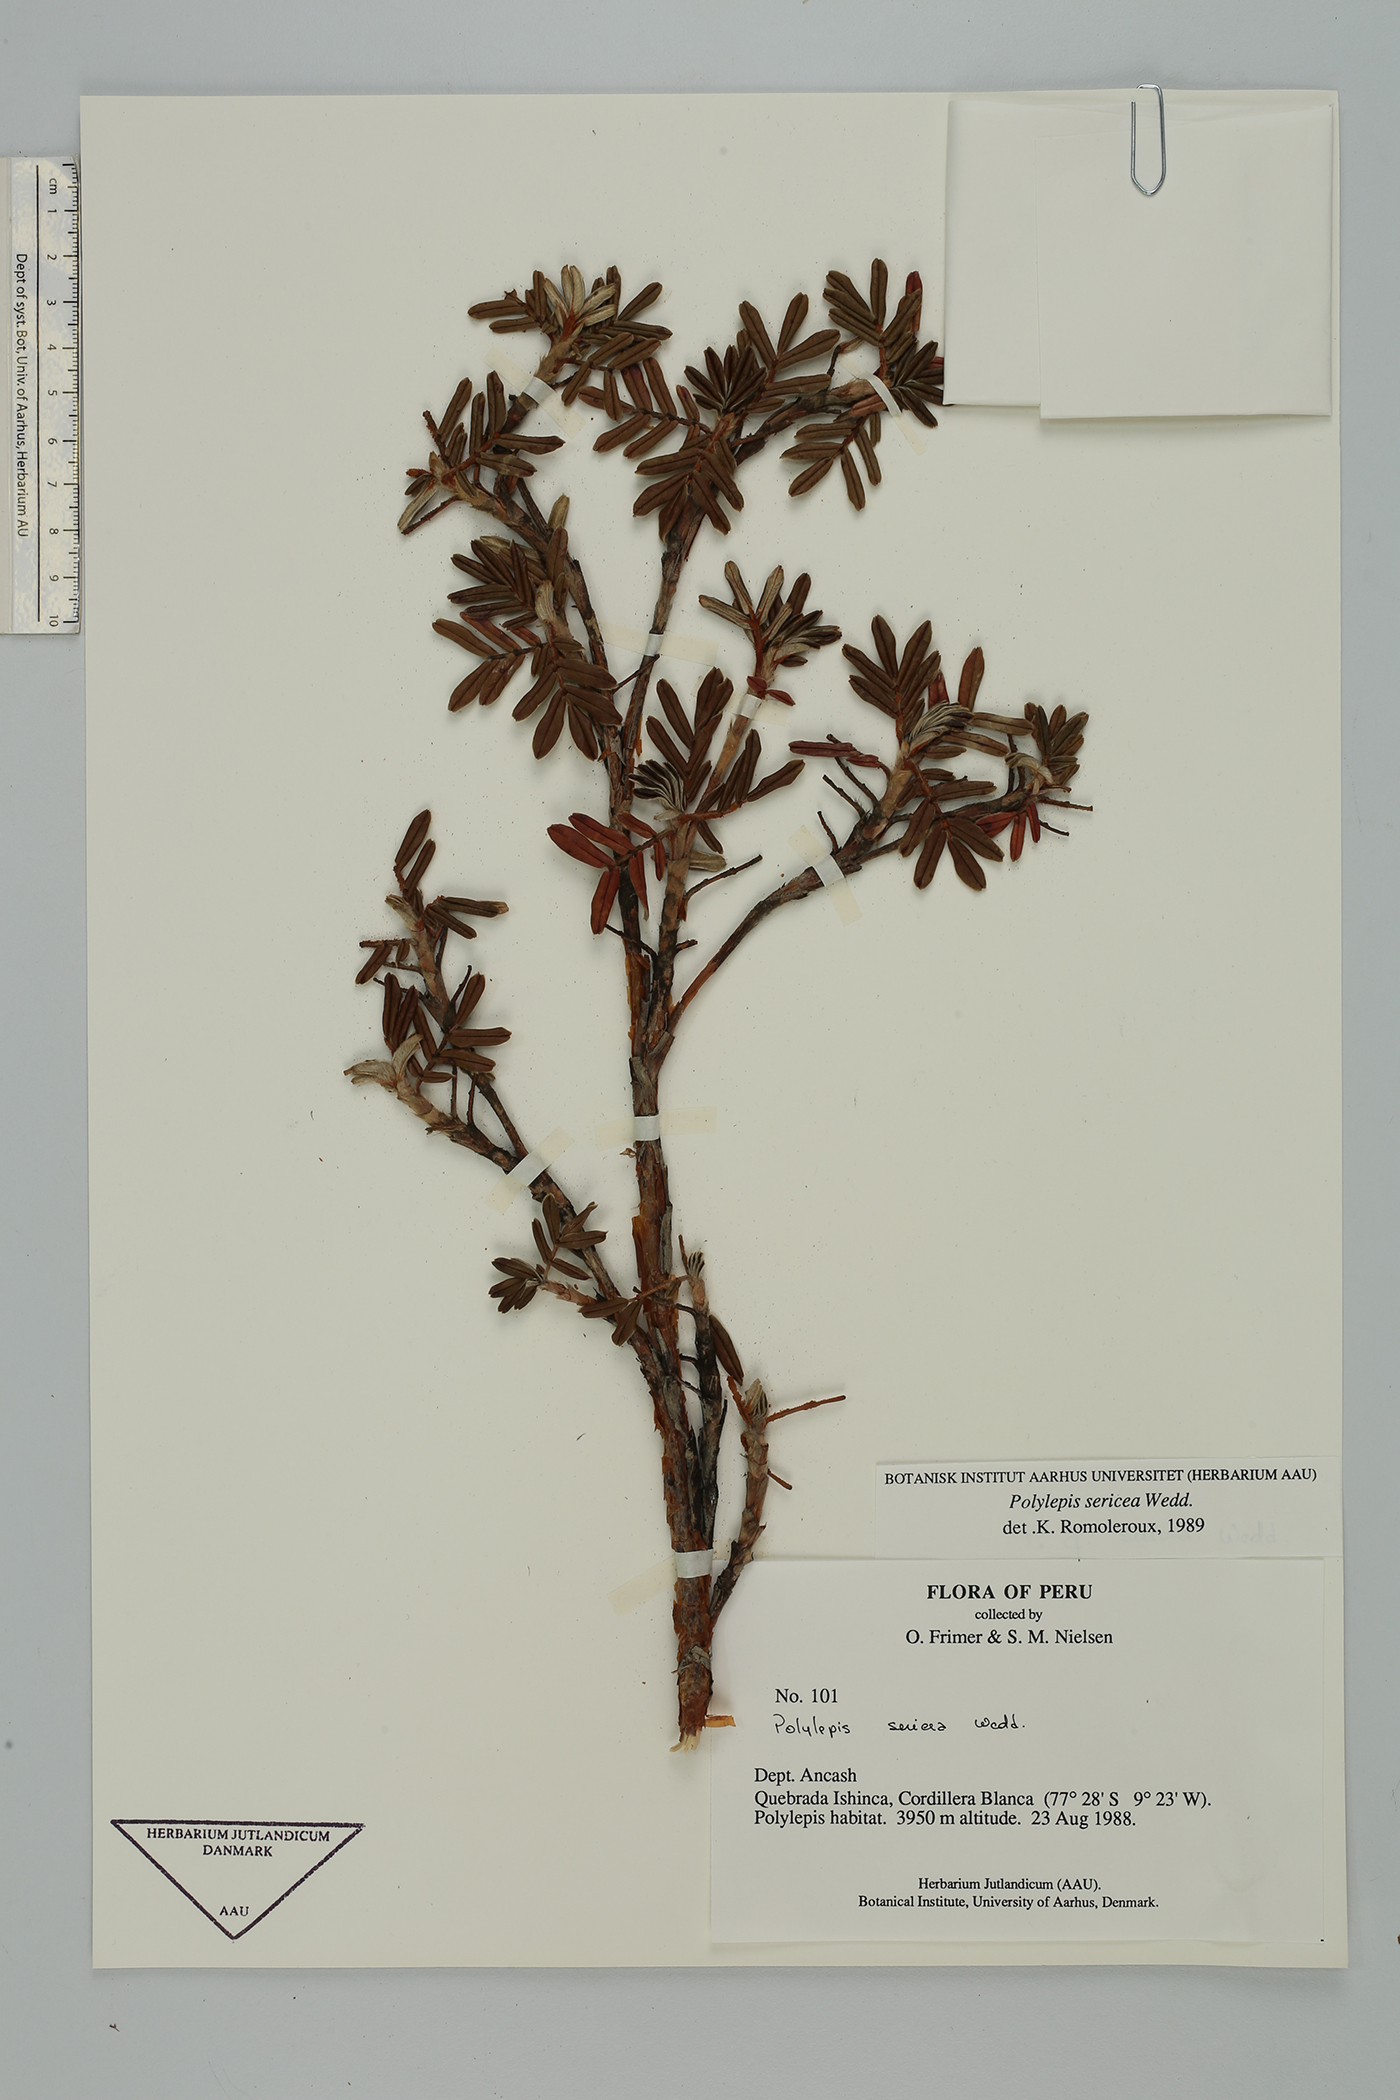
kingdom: Plantae
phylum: Tracheophyta
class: Magnoliopsida
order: Rosales
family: Rosaceae
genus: Polylepis
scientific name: Polylepis sericea
